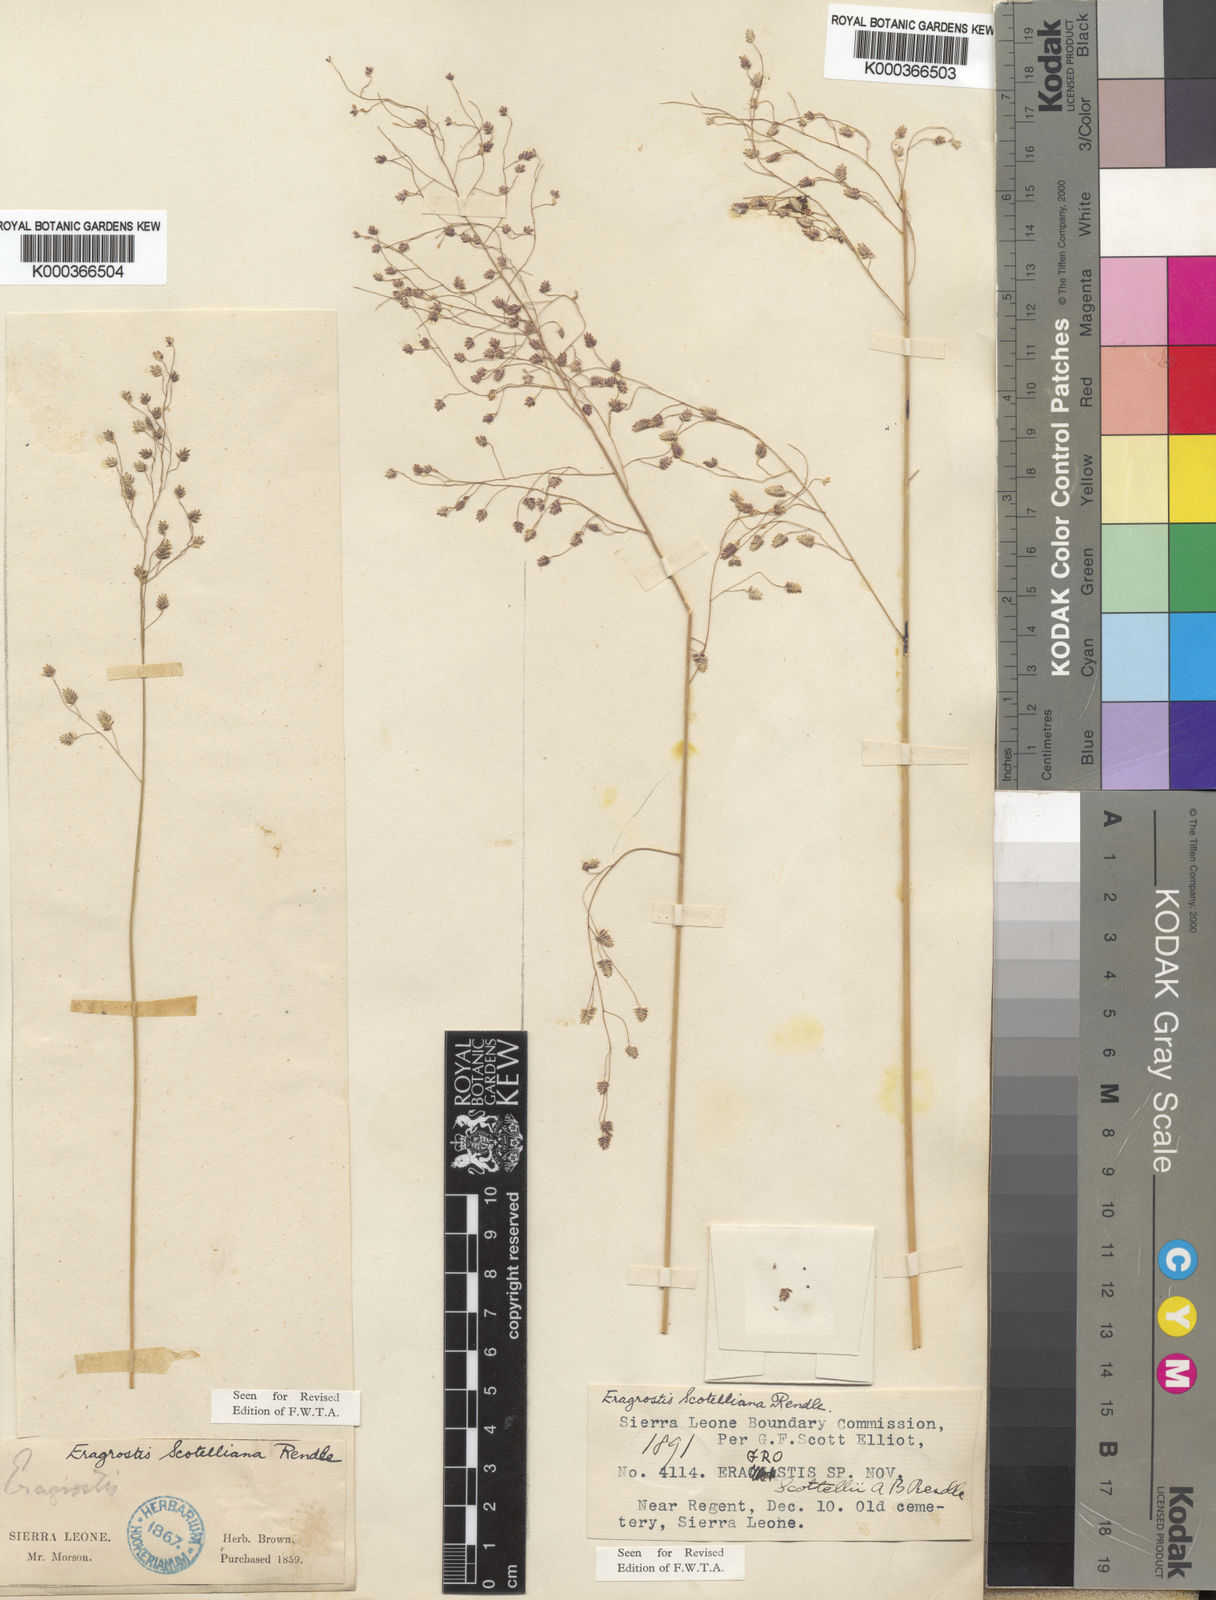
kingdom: Plantae
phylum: Tracheophyta
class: Liliopsida
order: Poales
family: Poaceae
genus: Eragrostis
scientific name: Eragrostis scotelliana
